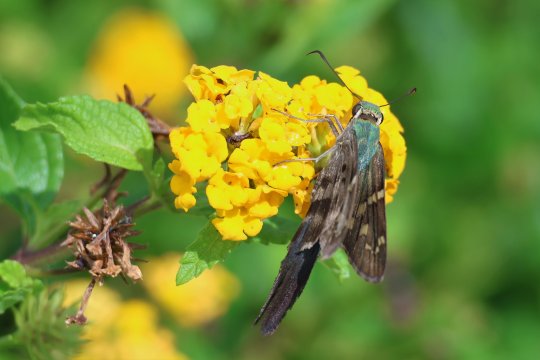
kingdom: Animalia
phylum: Arthropoda
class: Insecta
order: Lepidoptera
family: Hesperiidae
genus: Urbanus
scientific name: Urbanus proteus
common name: Long-tailed Skipper
